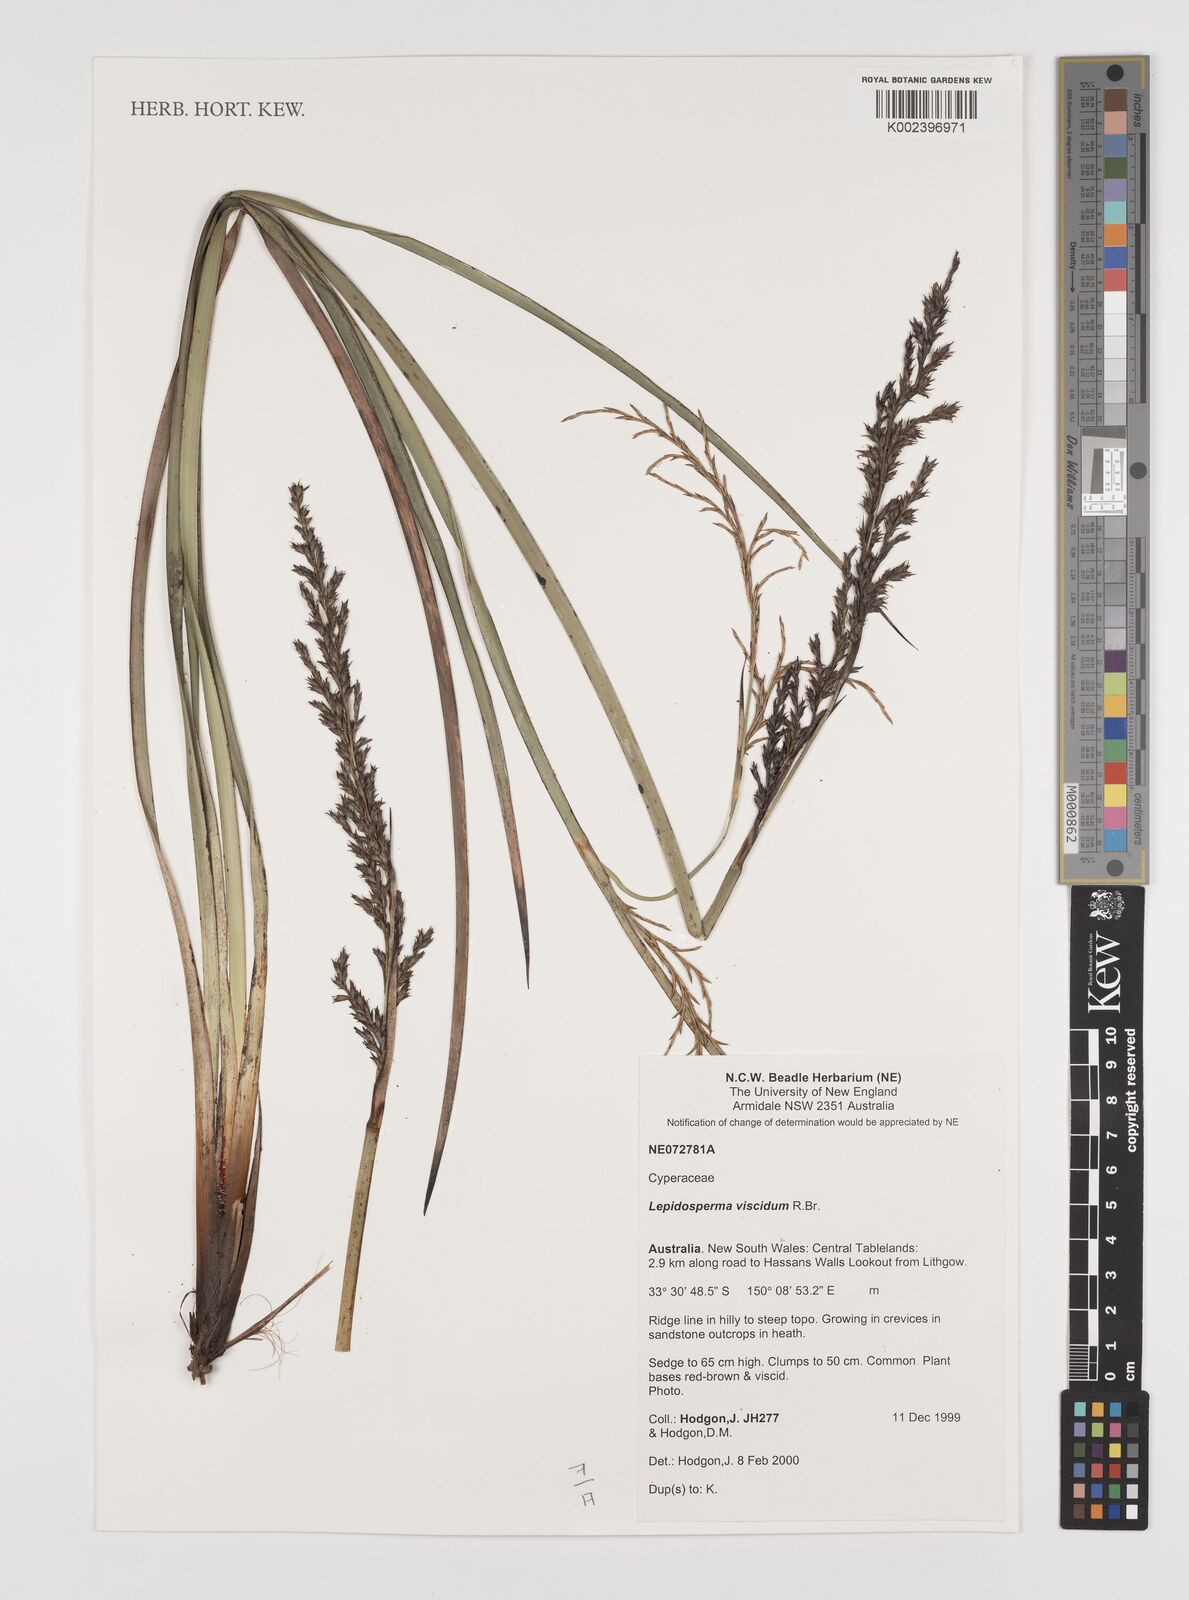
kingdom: Plantae
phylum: Tracheophyta
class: Liliopsida
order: Poales
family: Cyperaceae
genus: Lepidosperma
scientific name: Lepidosperma viscidum
